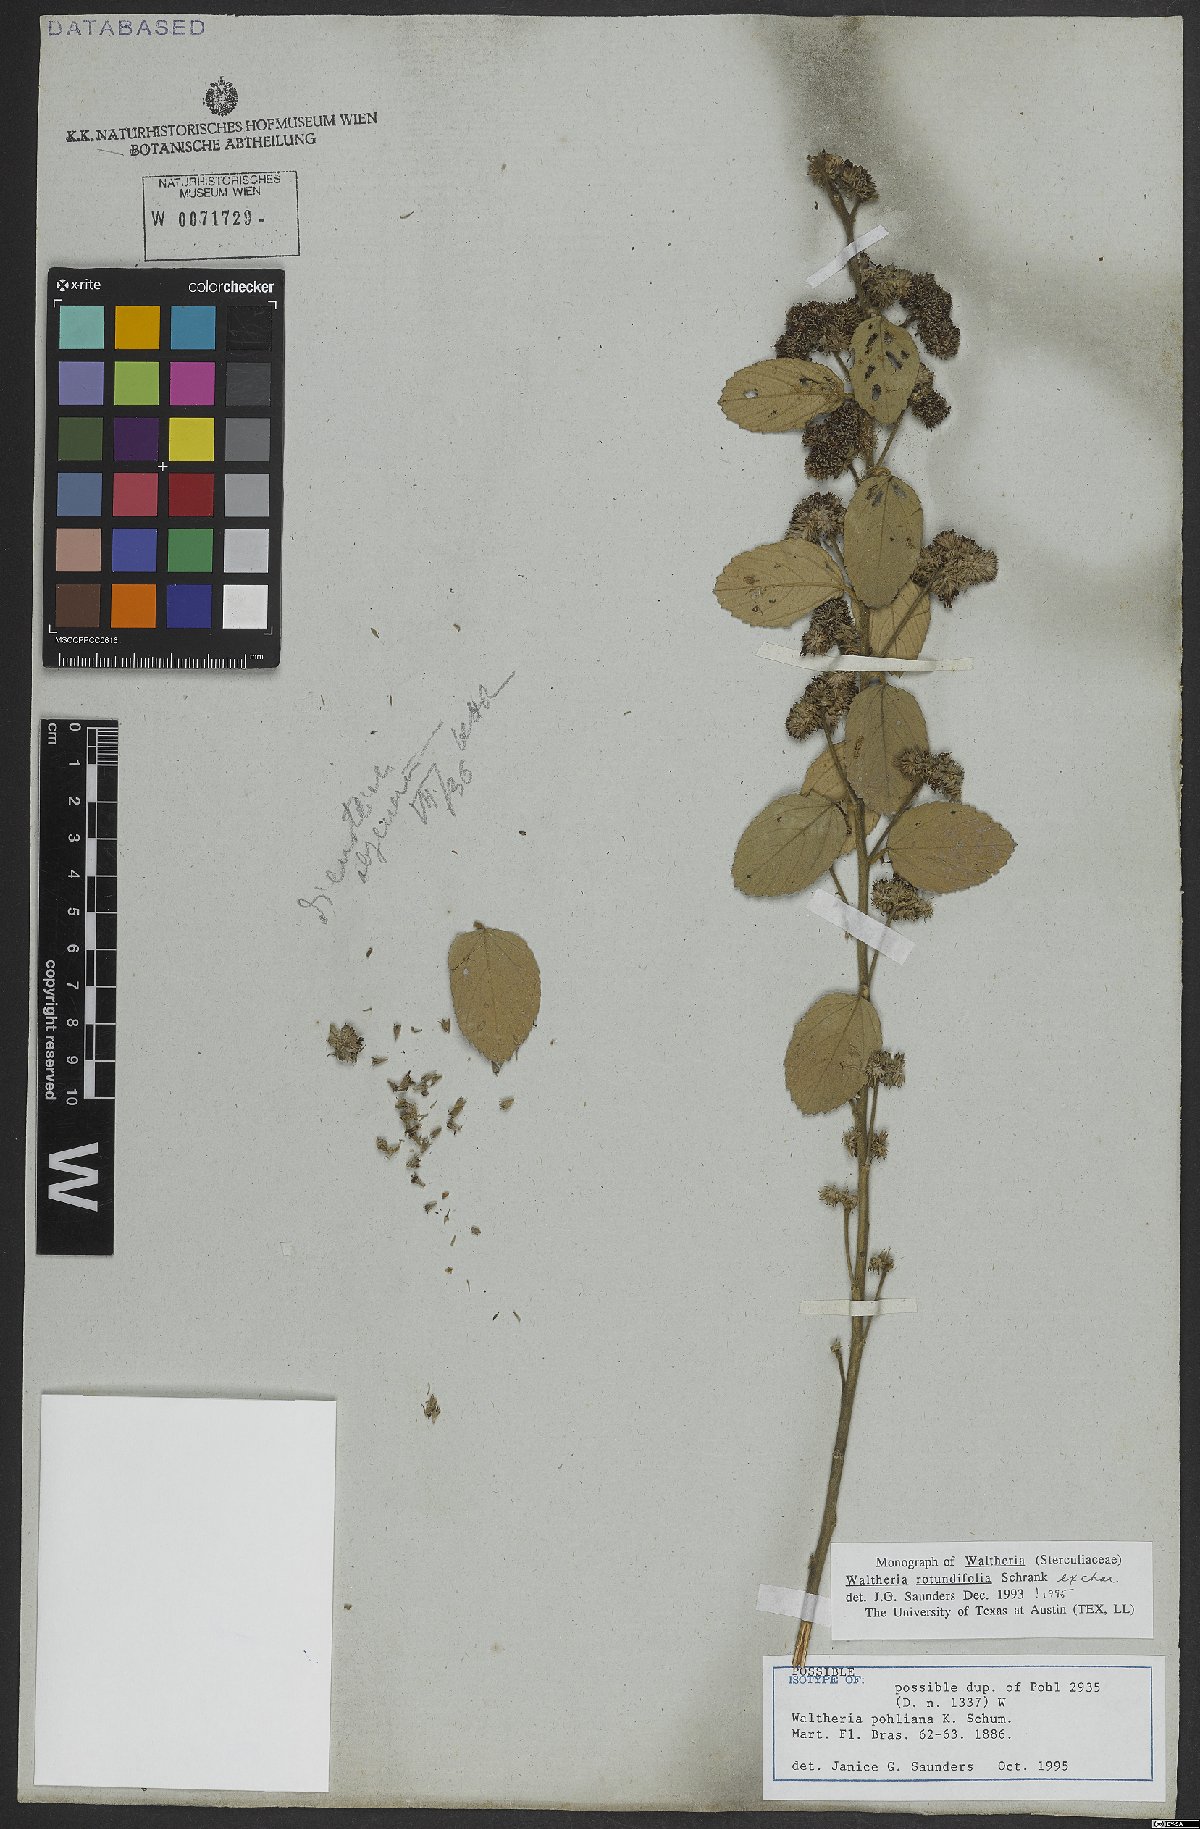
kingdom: Plantae
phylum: Tracheophyta
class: Magnoliopsida
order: Malvales
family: Malvaceae
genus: Waltheria
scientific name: Waltheria rotundifolia
